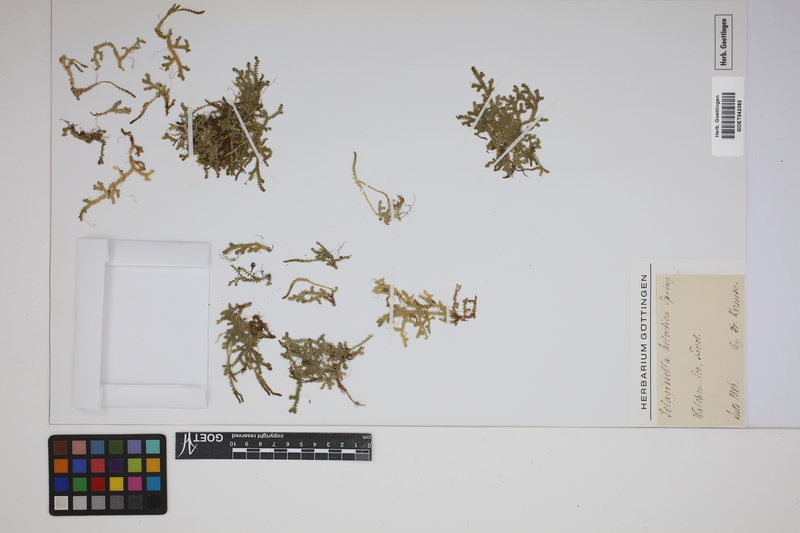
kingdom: Plantae
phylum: Tracheophyta
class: Lycopodiopsida
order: Selaginellales
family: Selaginellaceae
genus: Selaginella
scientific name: Selaginella helvetica
